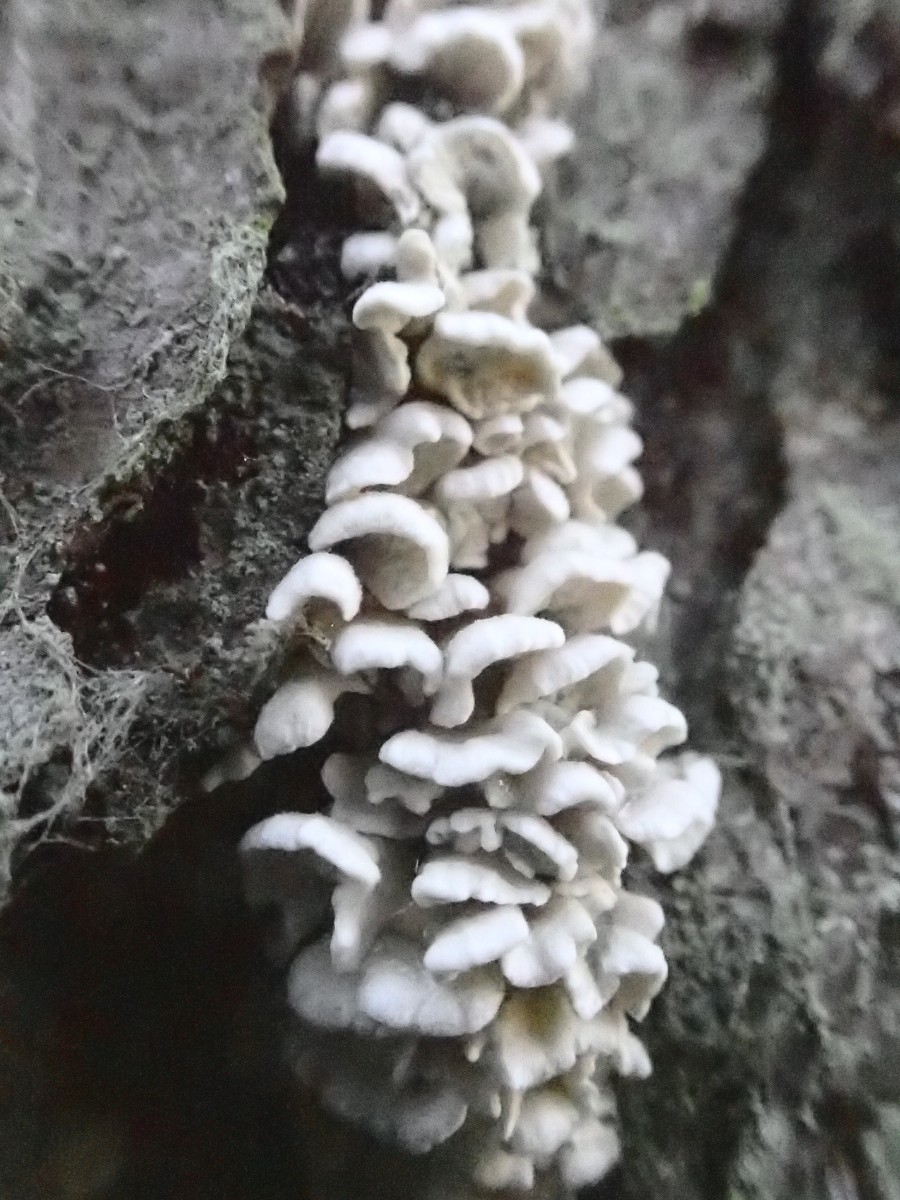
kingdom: Fungi
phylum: Basidiomycota
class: Agaricomycetes
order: Amylocorticiales
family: Amylocorticiaceae
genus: Plicaturopsis
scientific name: Plicaturopsis crispa
